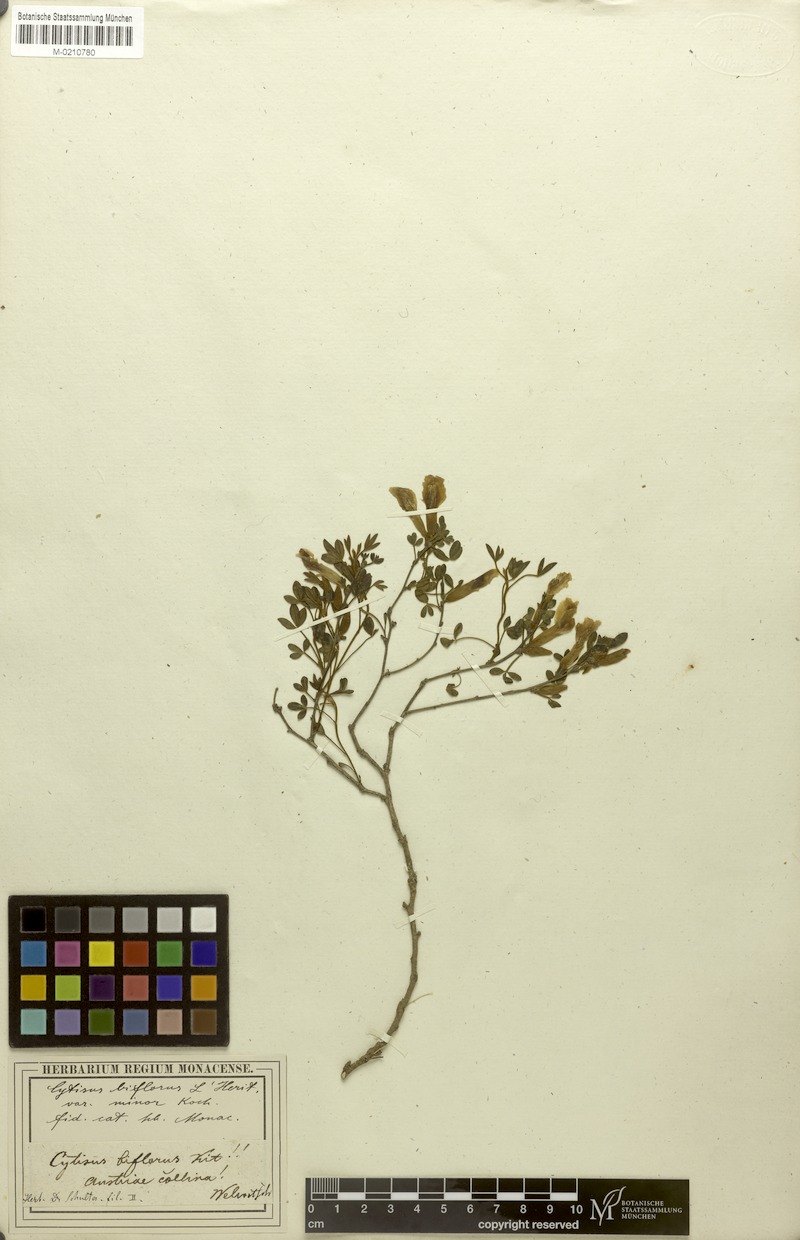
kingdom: Plantae
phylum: Tracheophyta
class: Magnoliopsida
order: Fabales
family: Fabaceae
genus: Chamaecytisus
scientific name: Chamaecytisus ratisbonensis
